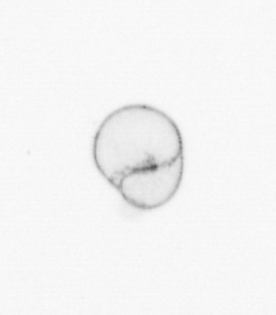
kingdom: Chromista
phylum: Ochrophyta
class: Bacillariophyceae
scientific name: Bacillariophyceae
